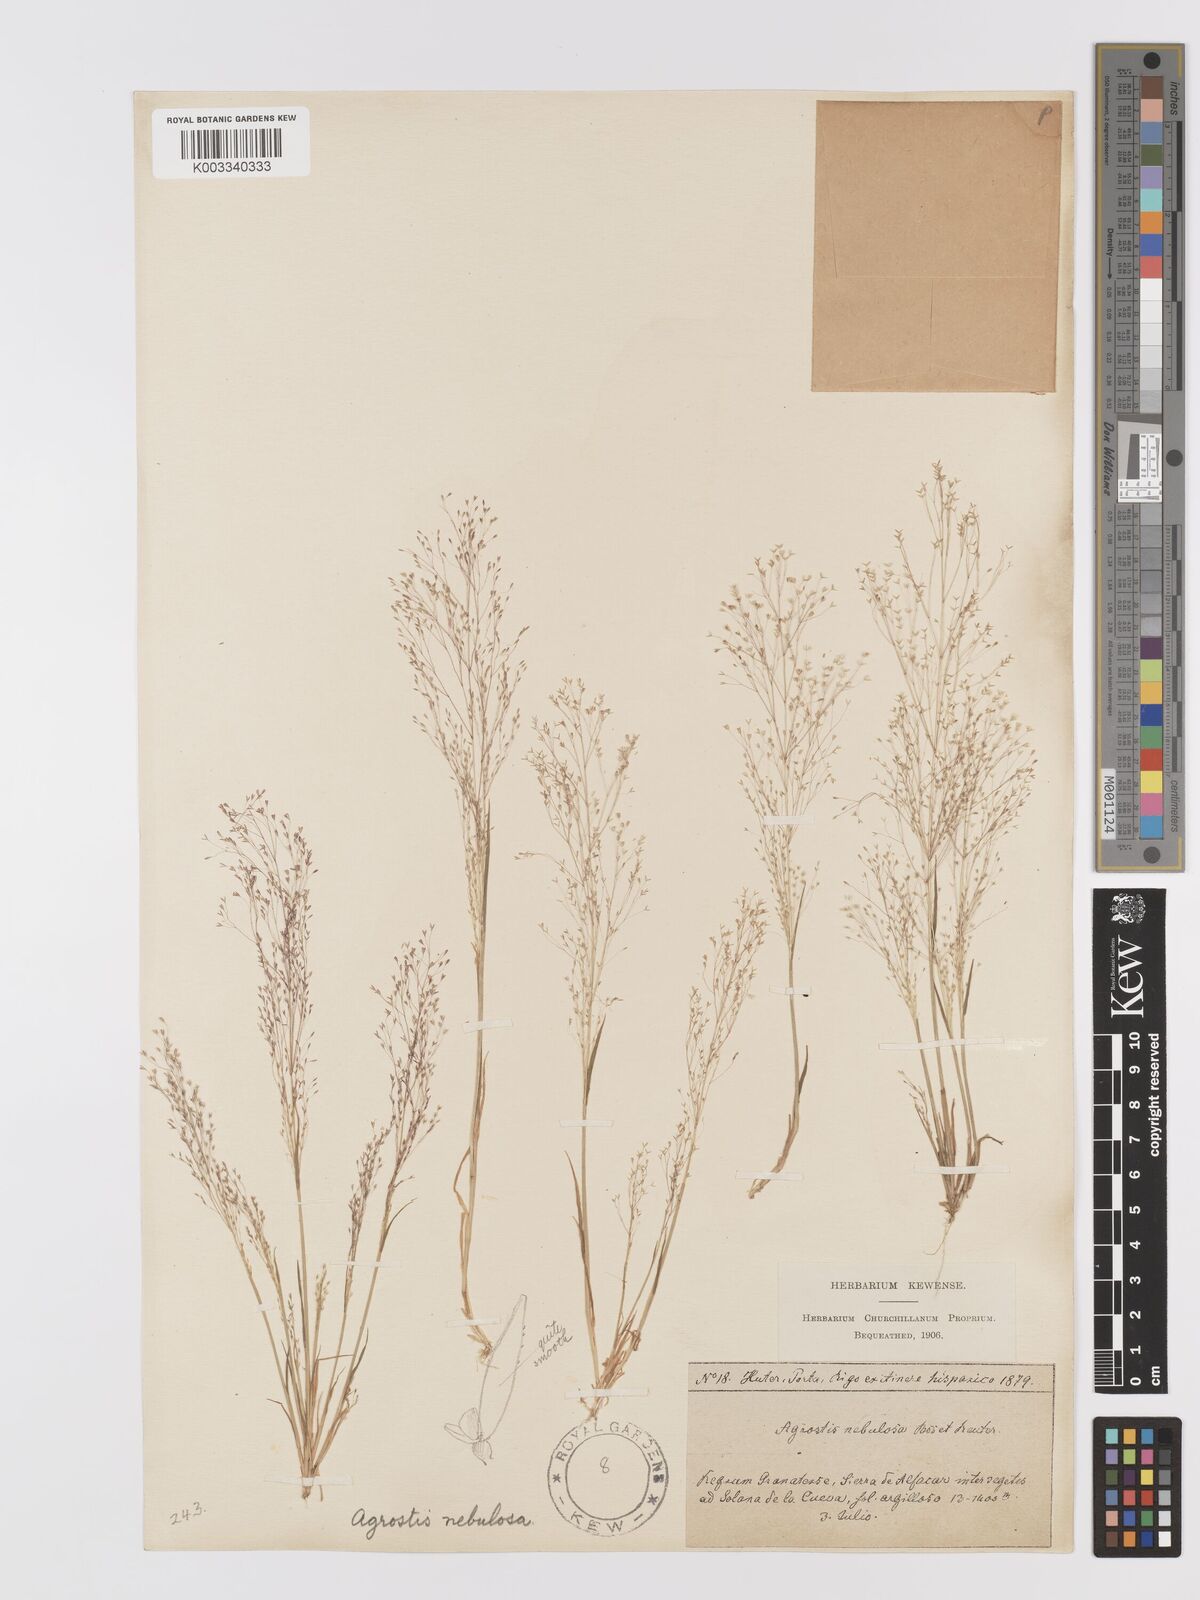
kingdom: Plantae
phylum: Tracheophyta
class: Liliopsida
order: Poales
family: Poaceae
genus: Agrostis
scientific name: Agrostis nebulosa
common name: Cloud grass
